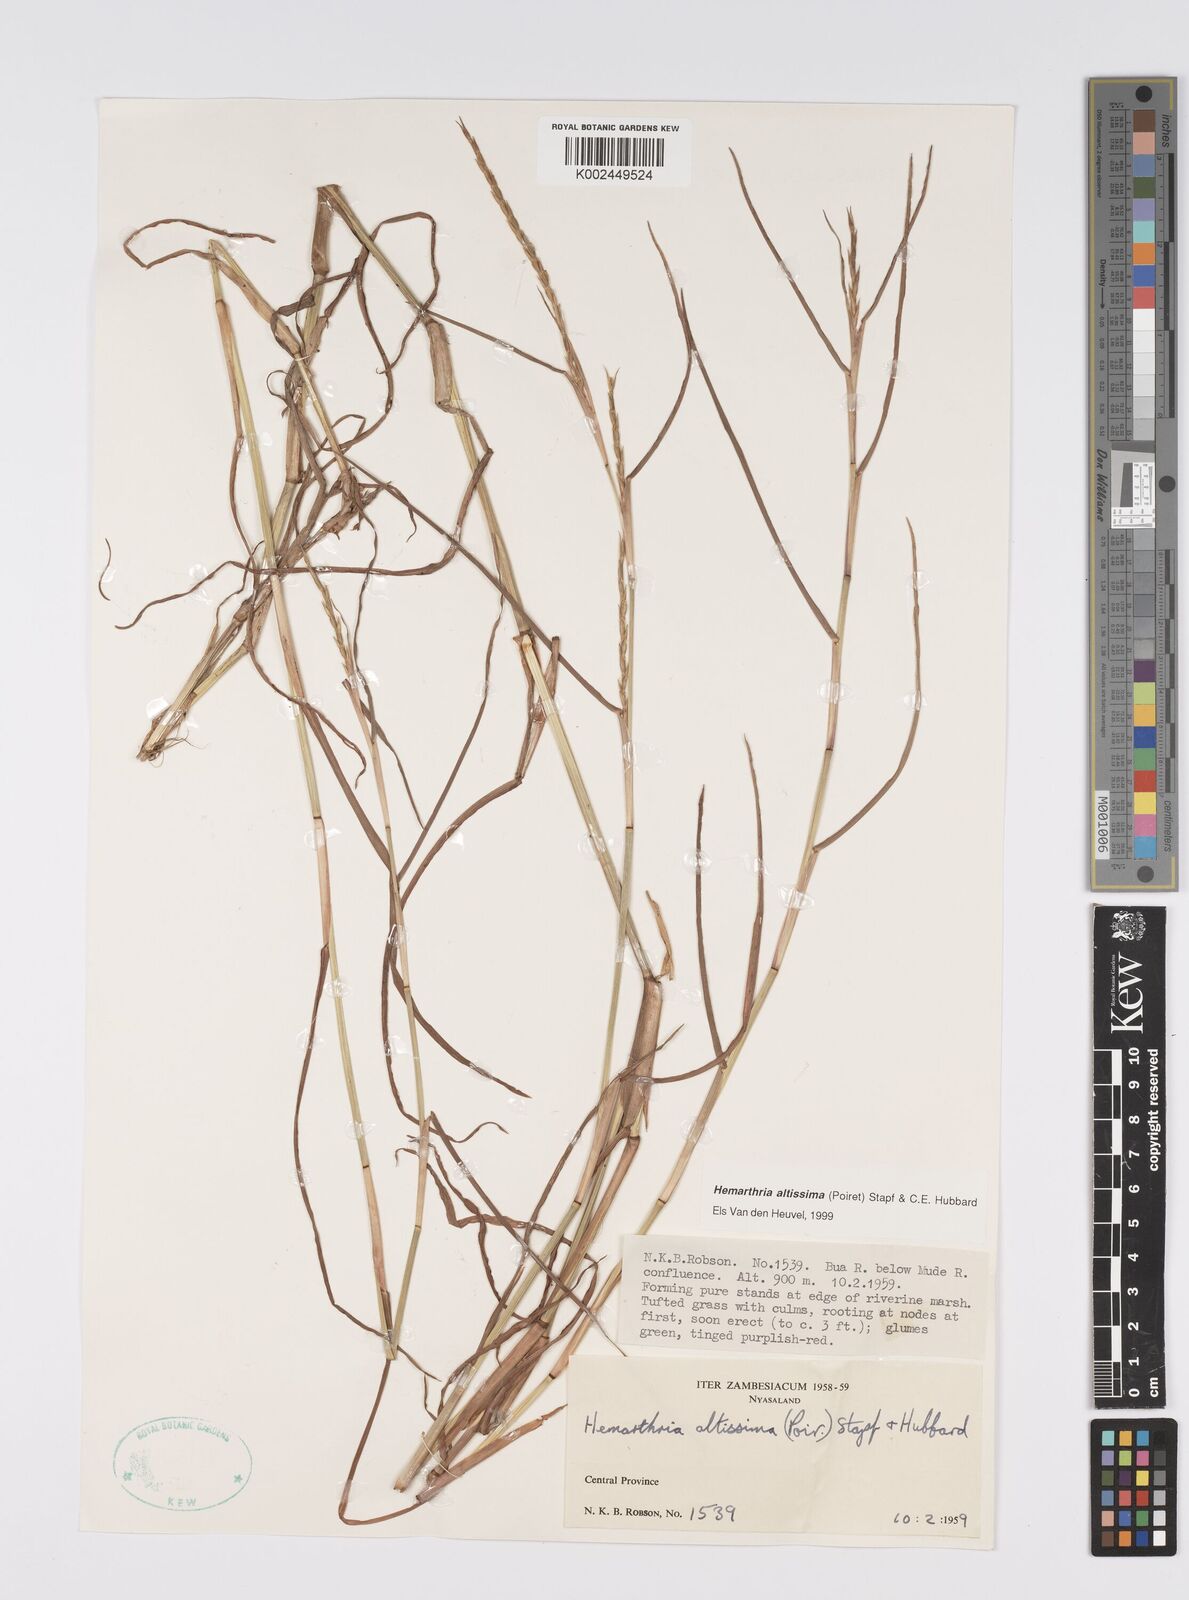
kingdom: Plantae
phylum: Tracheophyta
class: Liliopsida
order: Poales
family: Poaceae
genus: Hemarthria
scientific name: Hemarthria altissima
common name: African jointgrass
